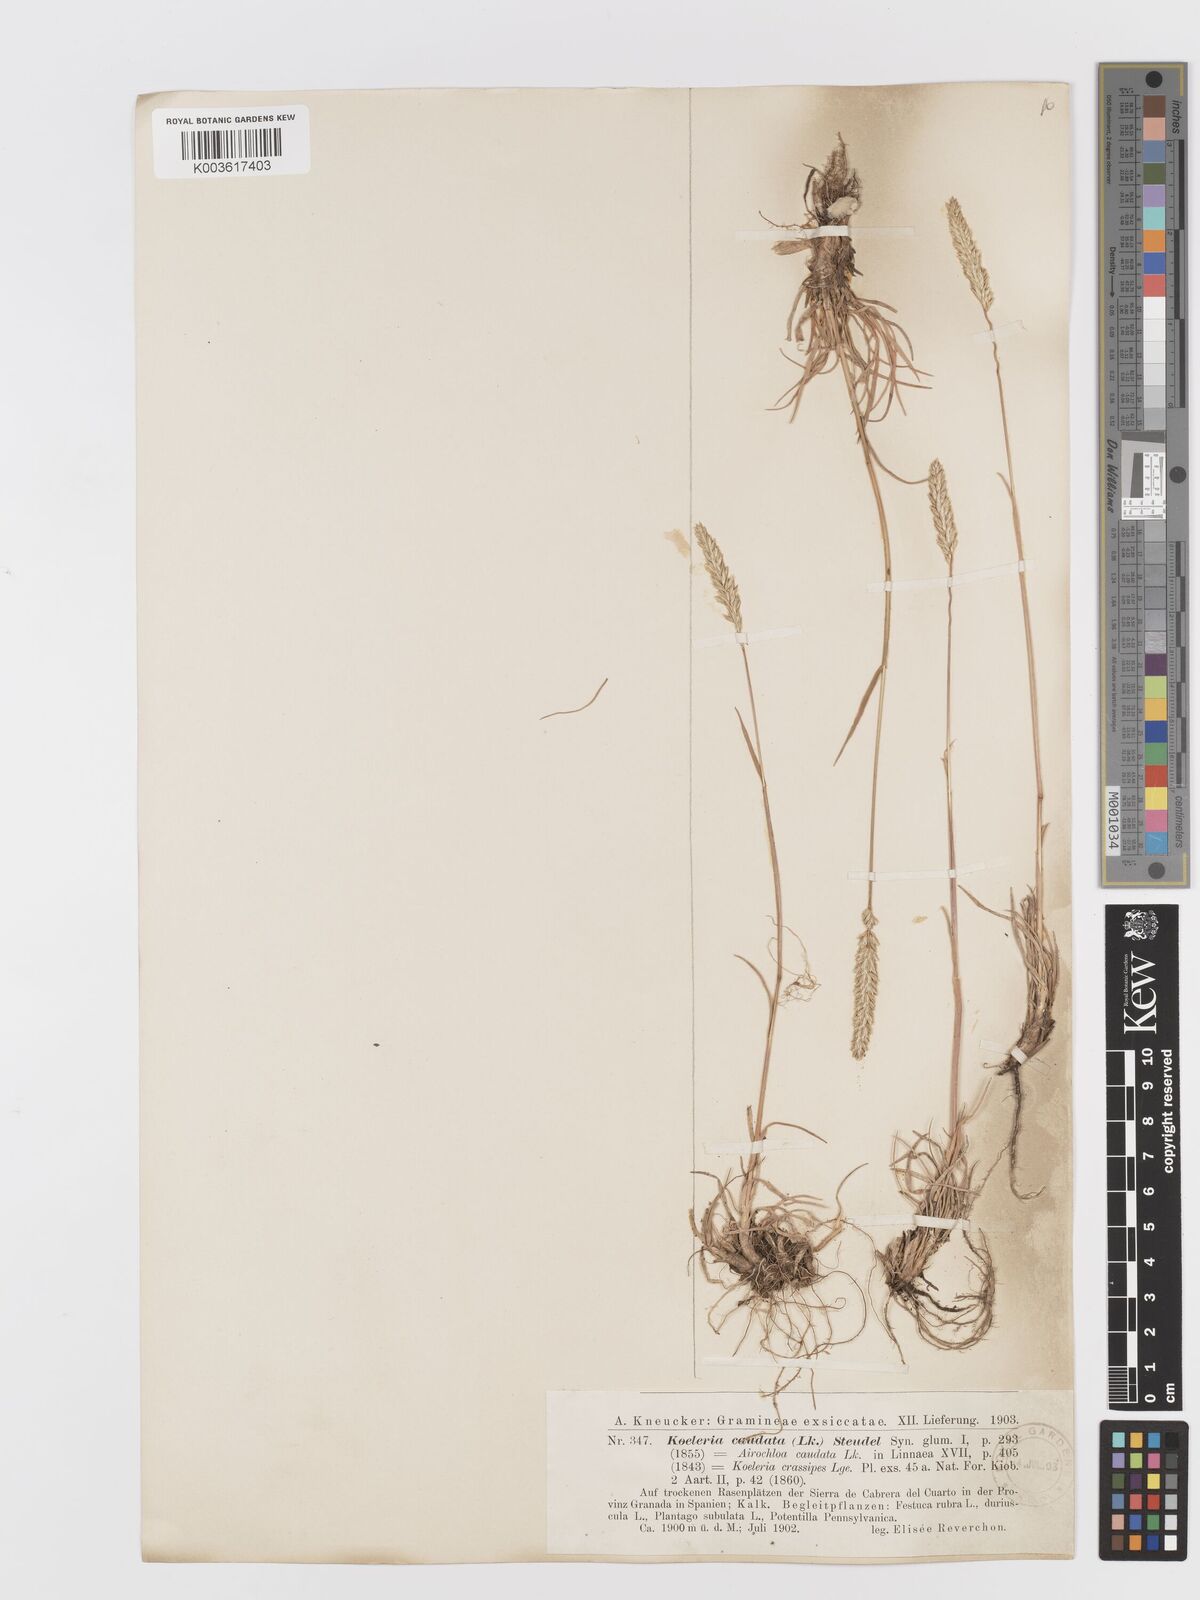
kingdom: Plantae
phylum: Tracheophyta
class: Liliopsida
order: Poales
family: Poaceae
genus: Koeleria
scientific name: Koeleria crassipes
